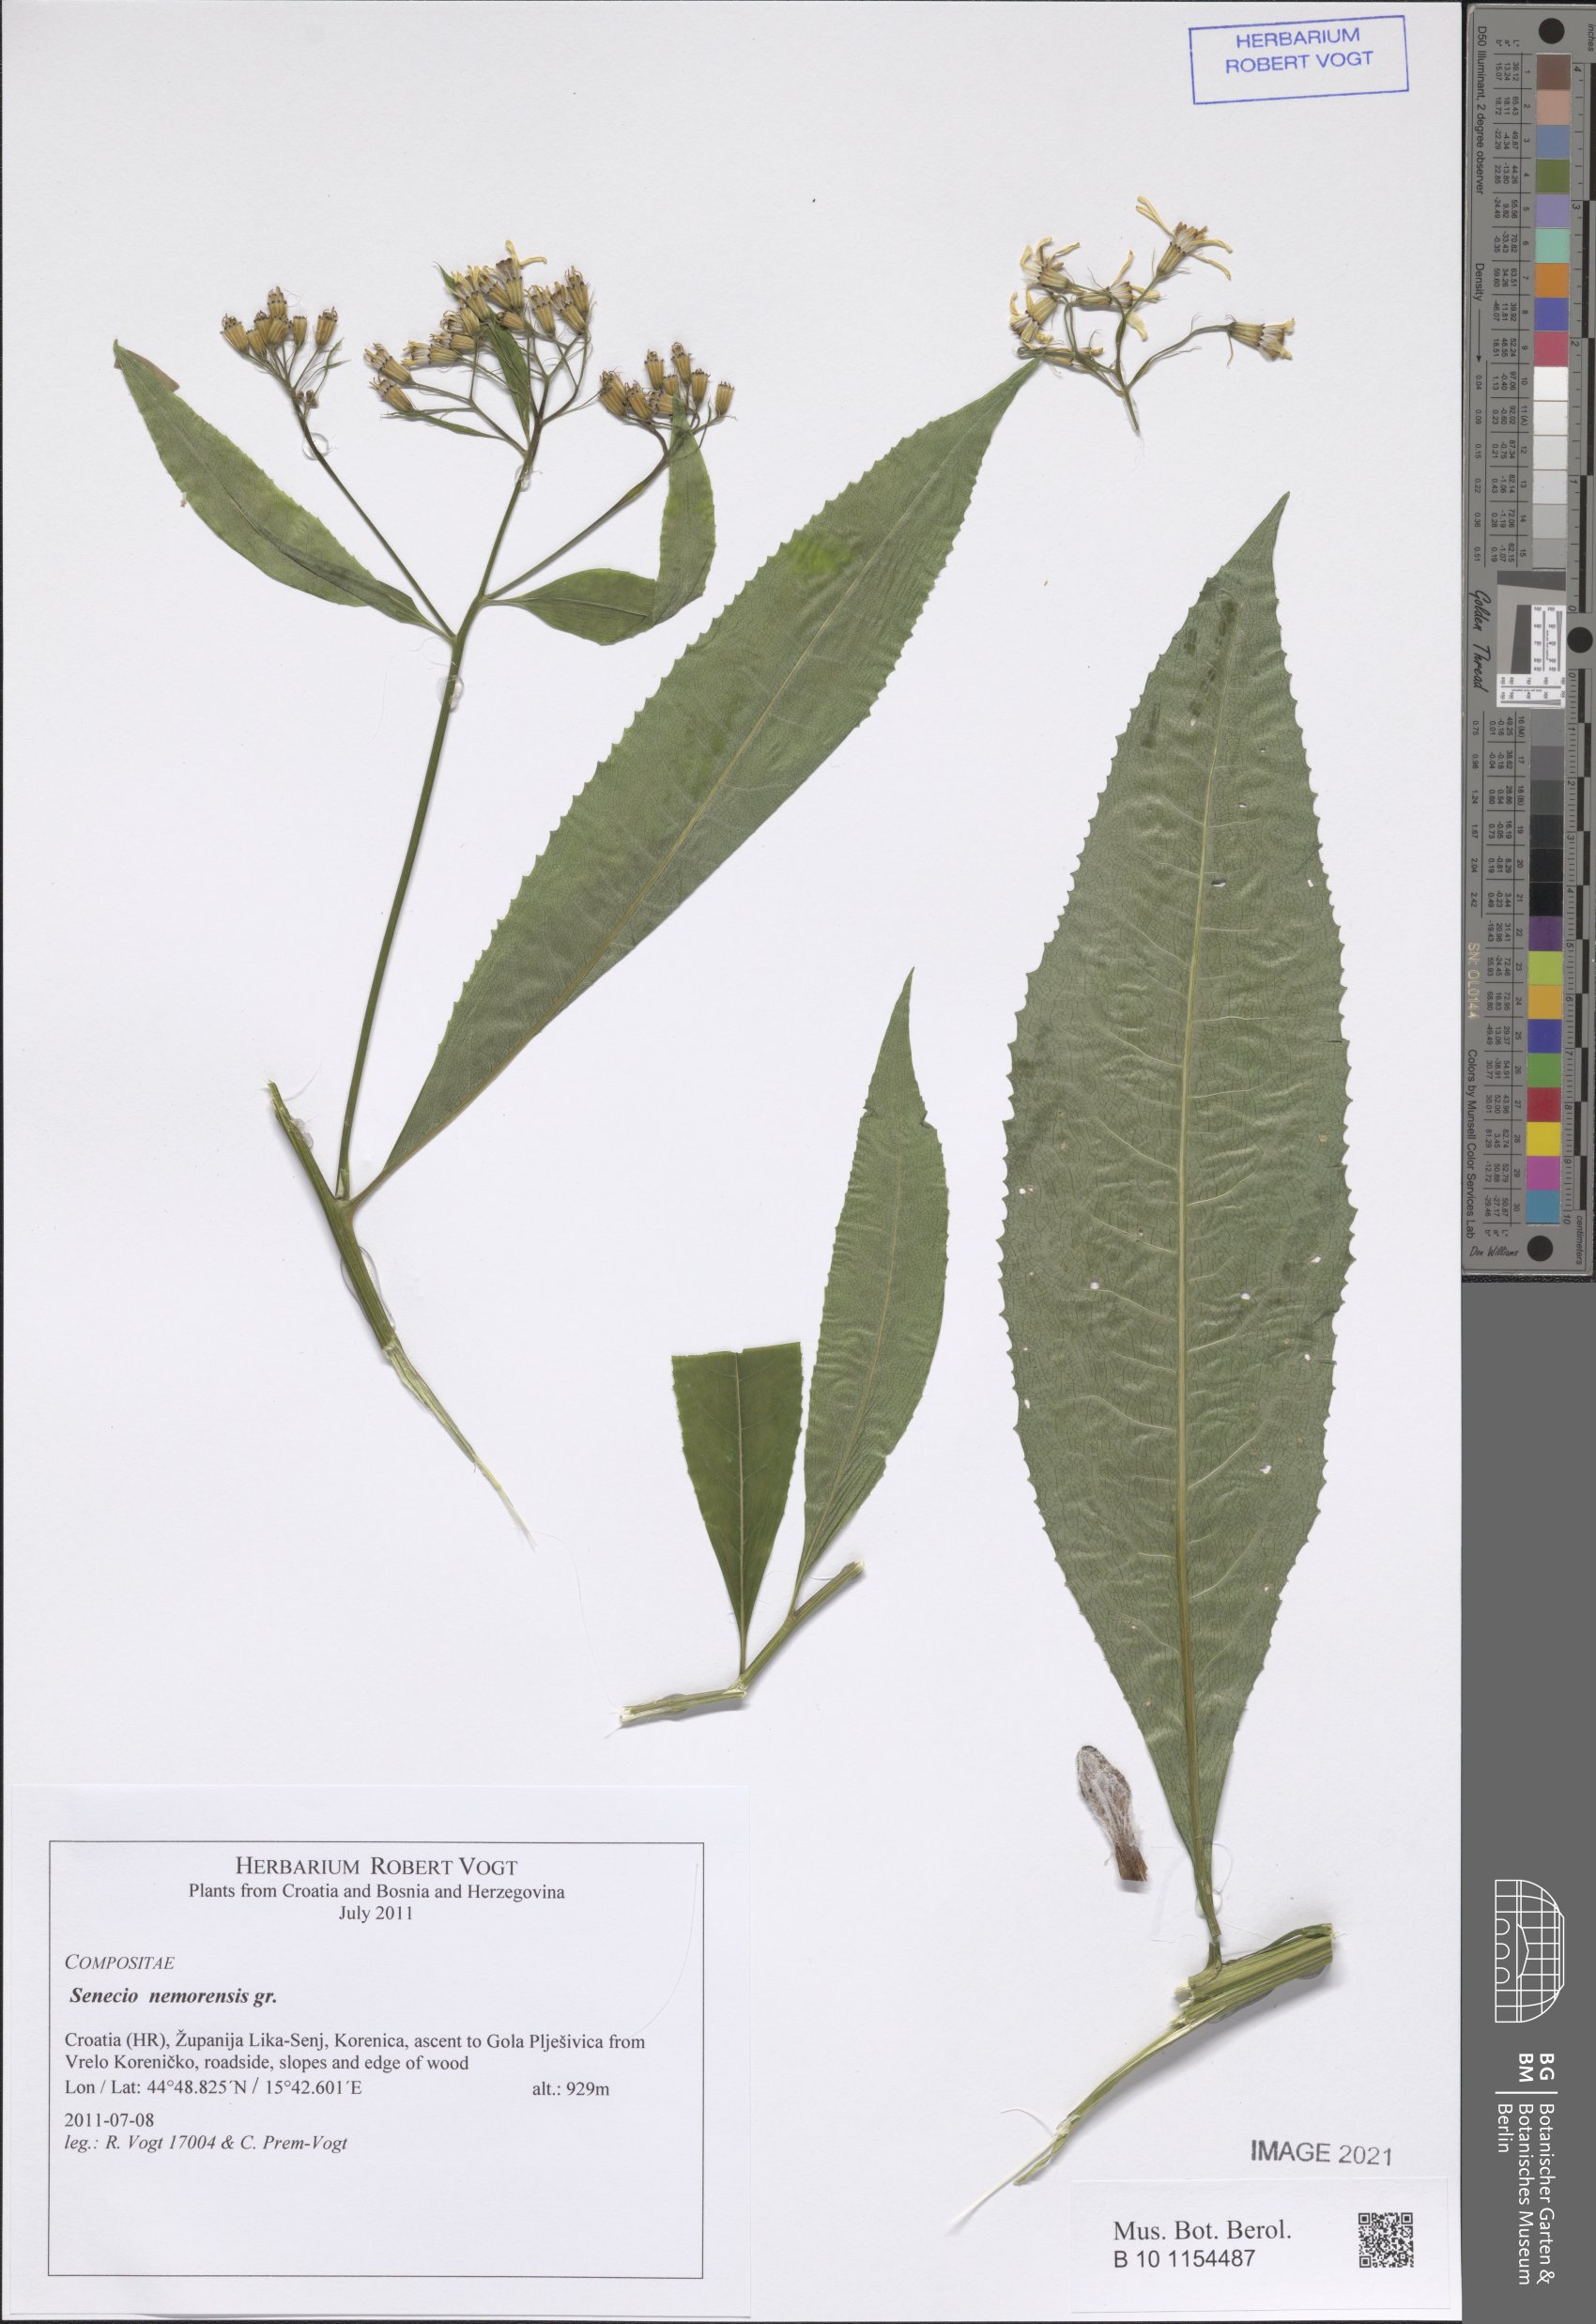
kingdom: Plantae
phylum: Tracheophyta
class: Magnoliopsida
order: Asterales
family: Asteraceae
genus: Senecio
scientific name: Senecio nemorensis
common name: Alpine ragwort
